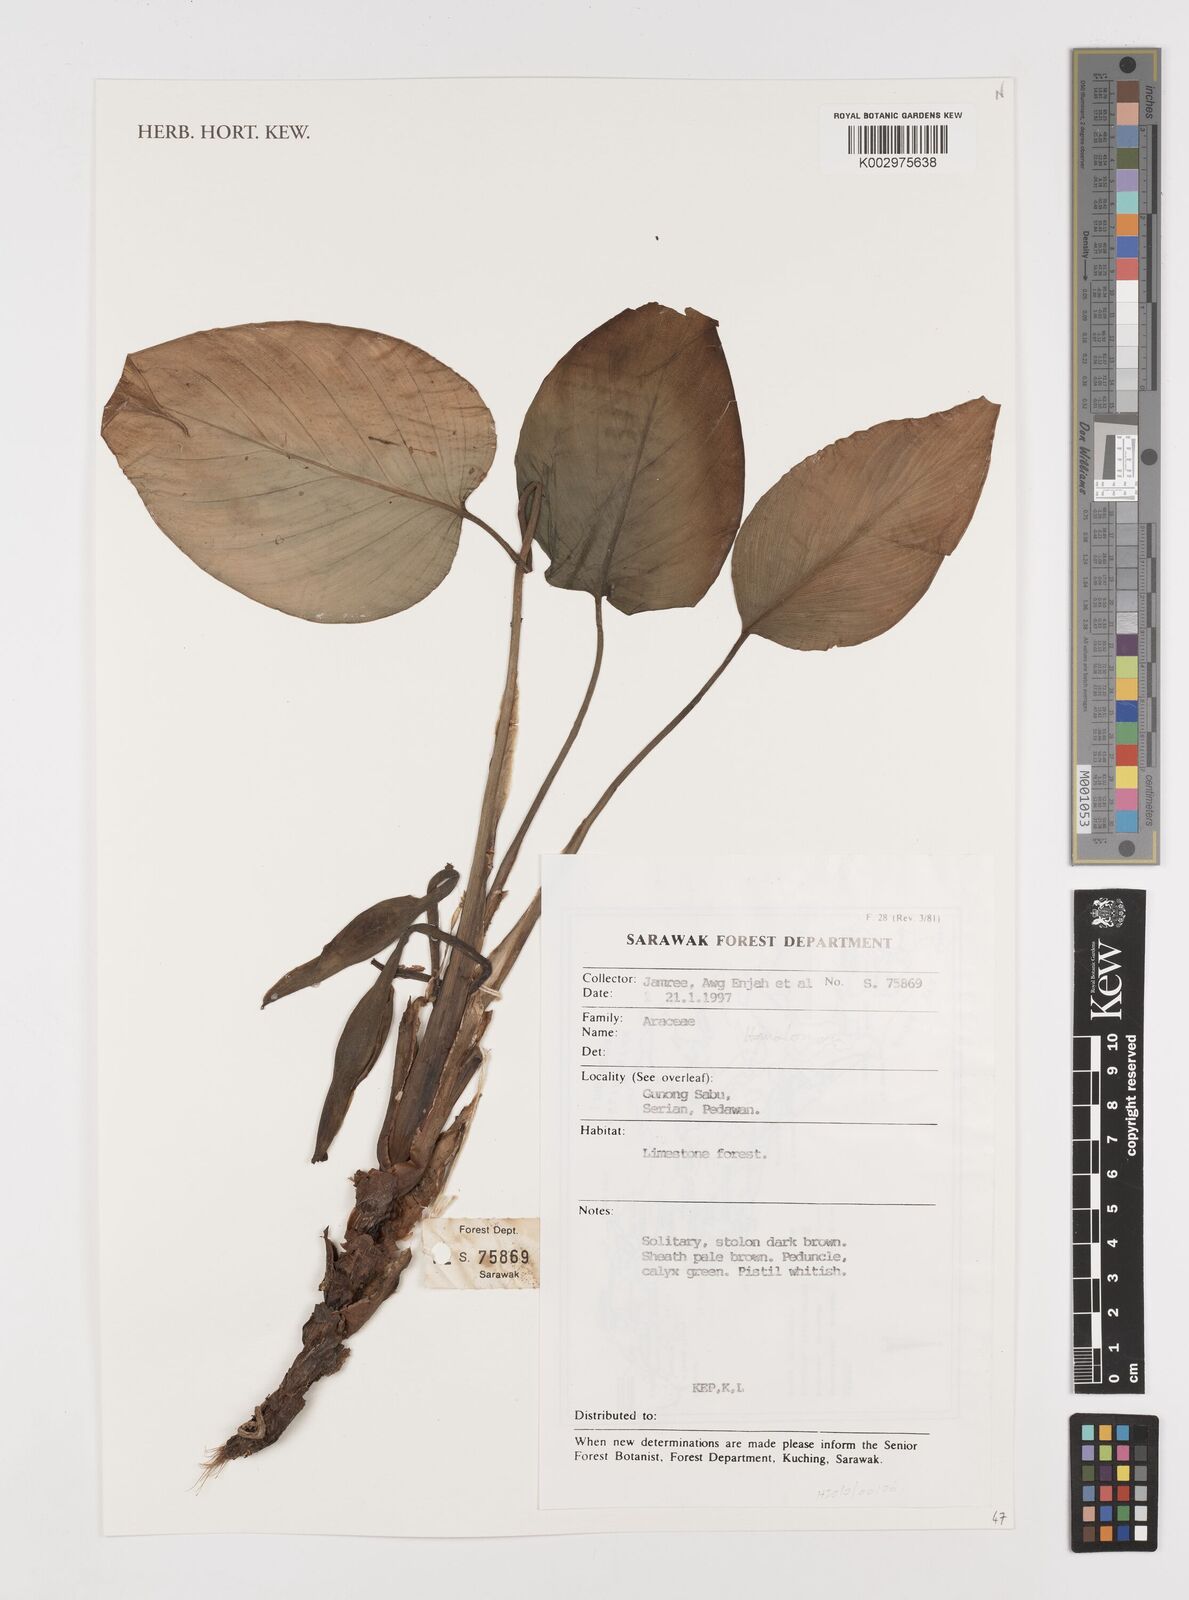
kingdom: Plantae
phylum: Tracheophyta
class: Liliopsida
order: Alismatales
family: Araceae
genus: Homalomena
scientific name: Homalomena
